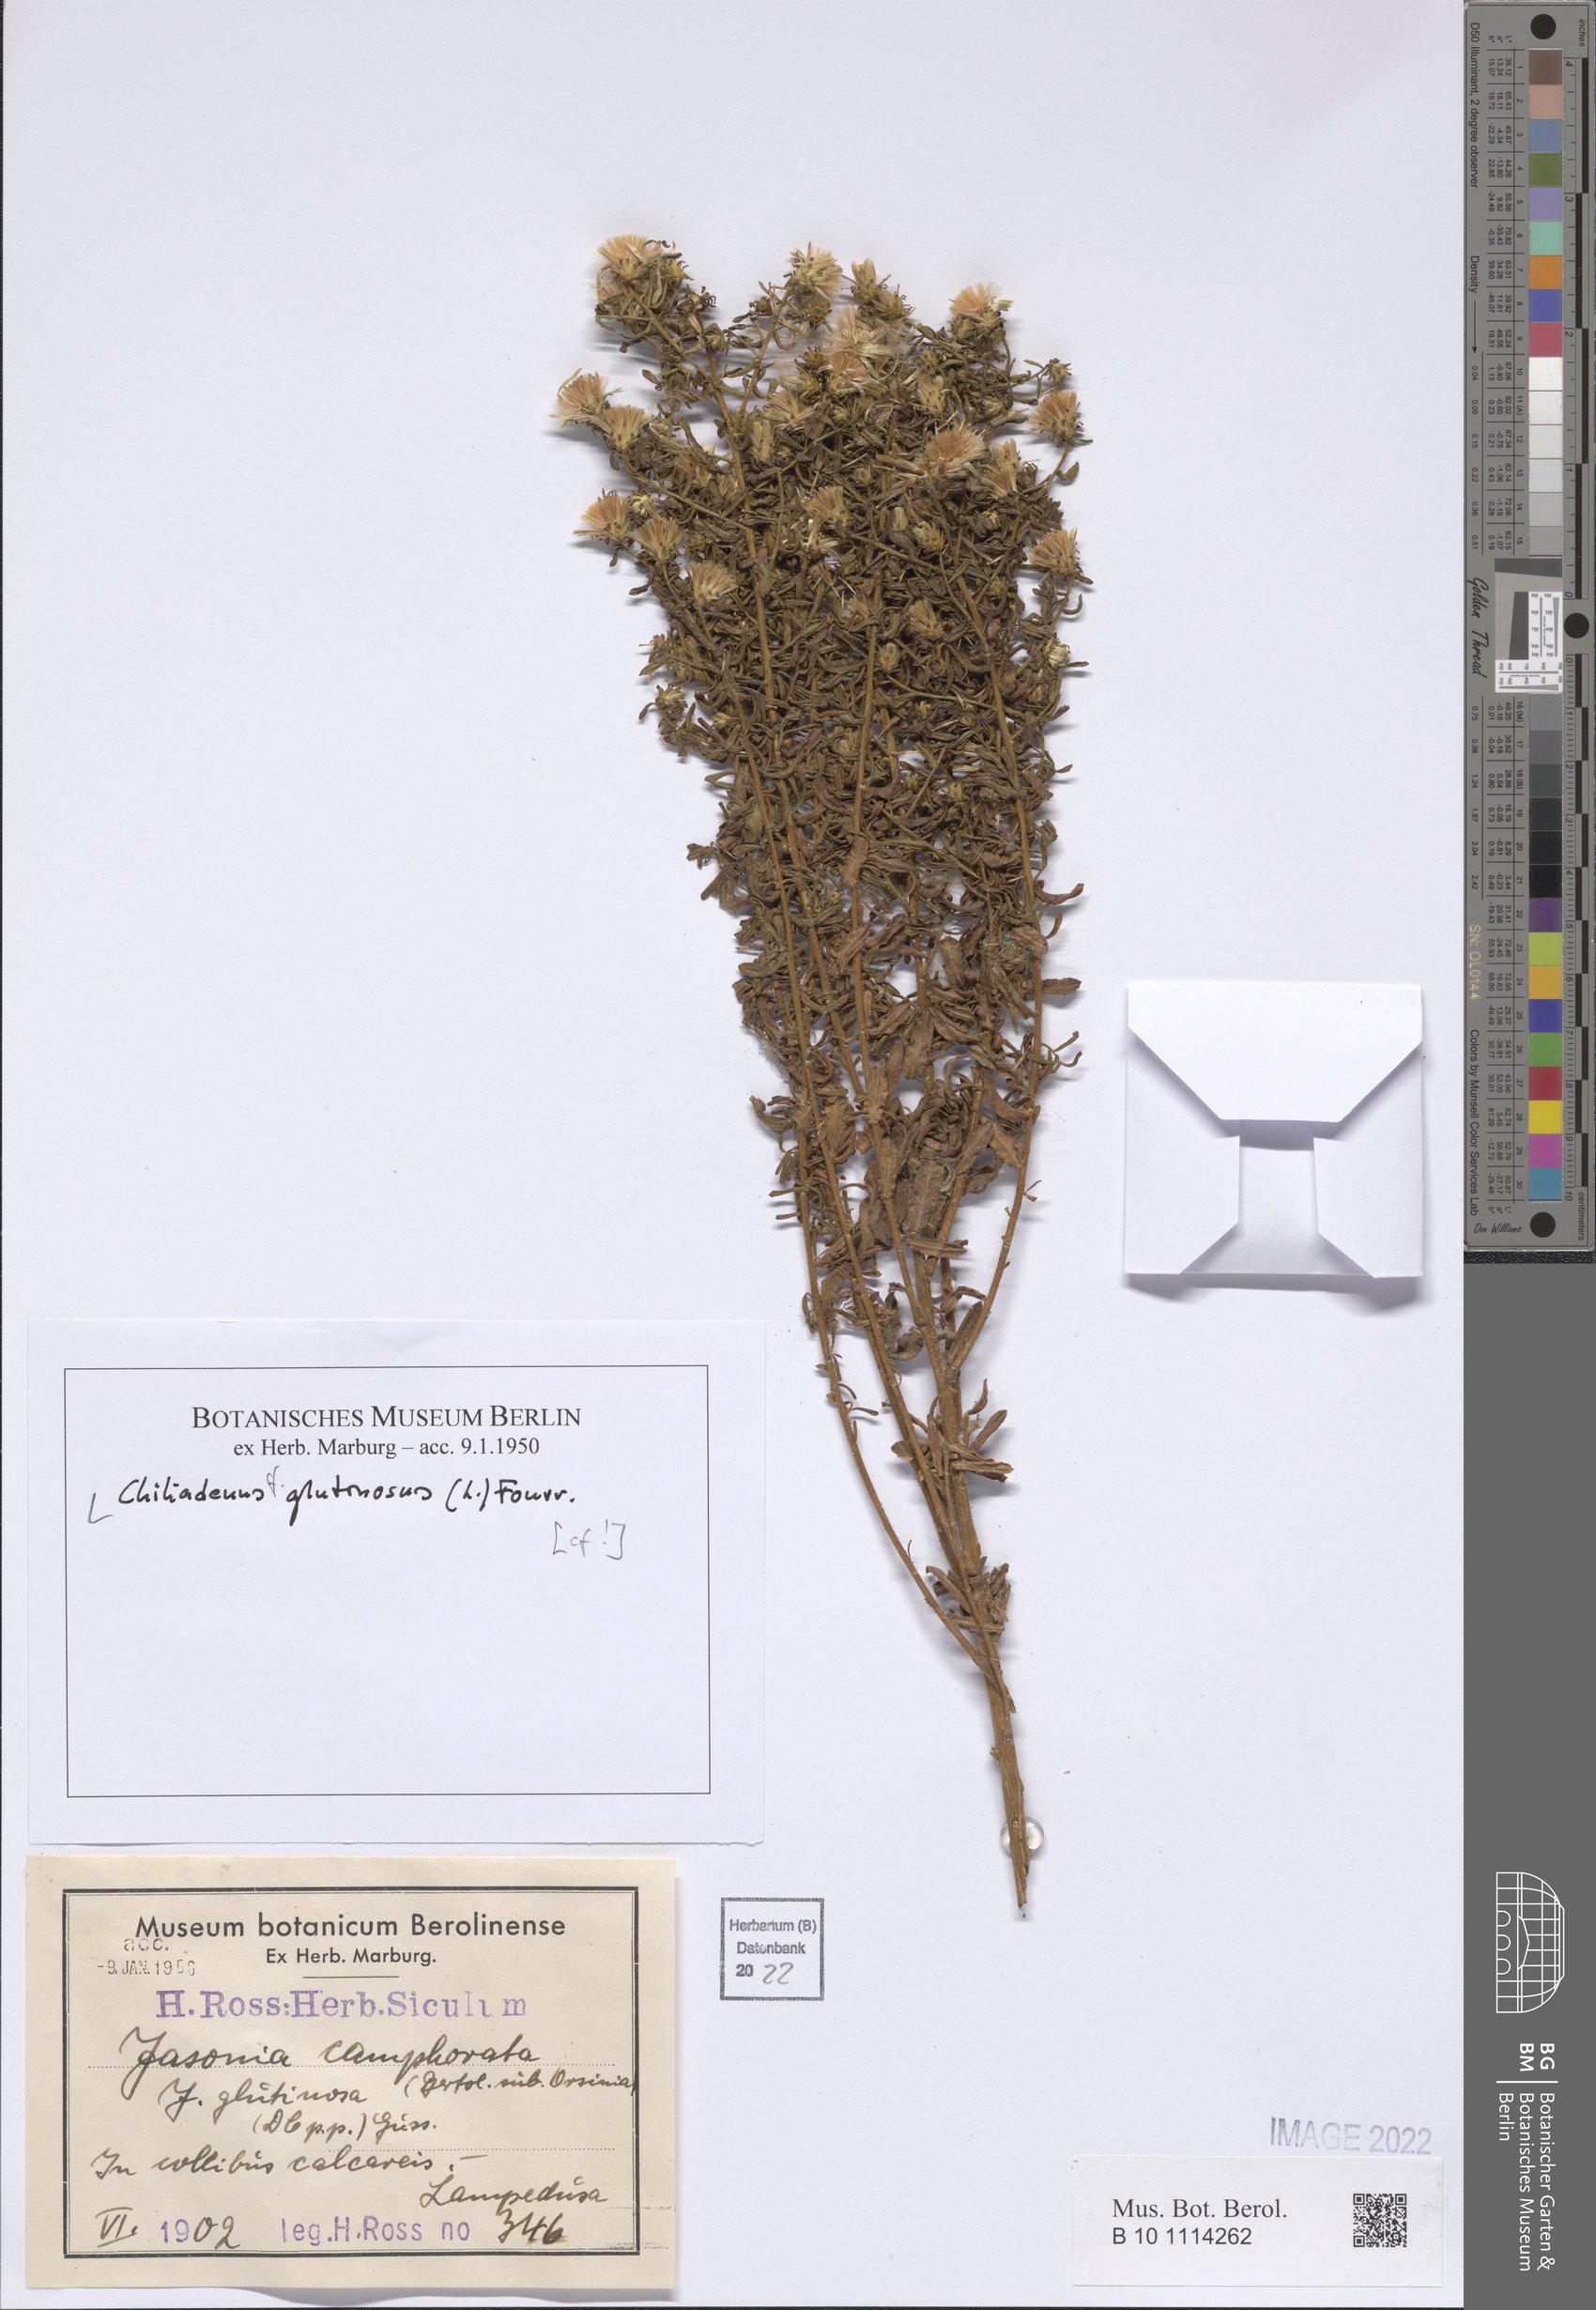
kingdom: Plantae
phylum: Tracheophyta
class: Magnoliopsida
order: Asterales
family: Asteraceae
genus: Chiliadenus
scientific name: Chiliadenus glutinosus
